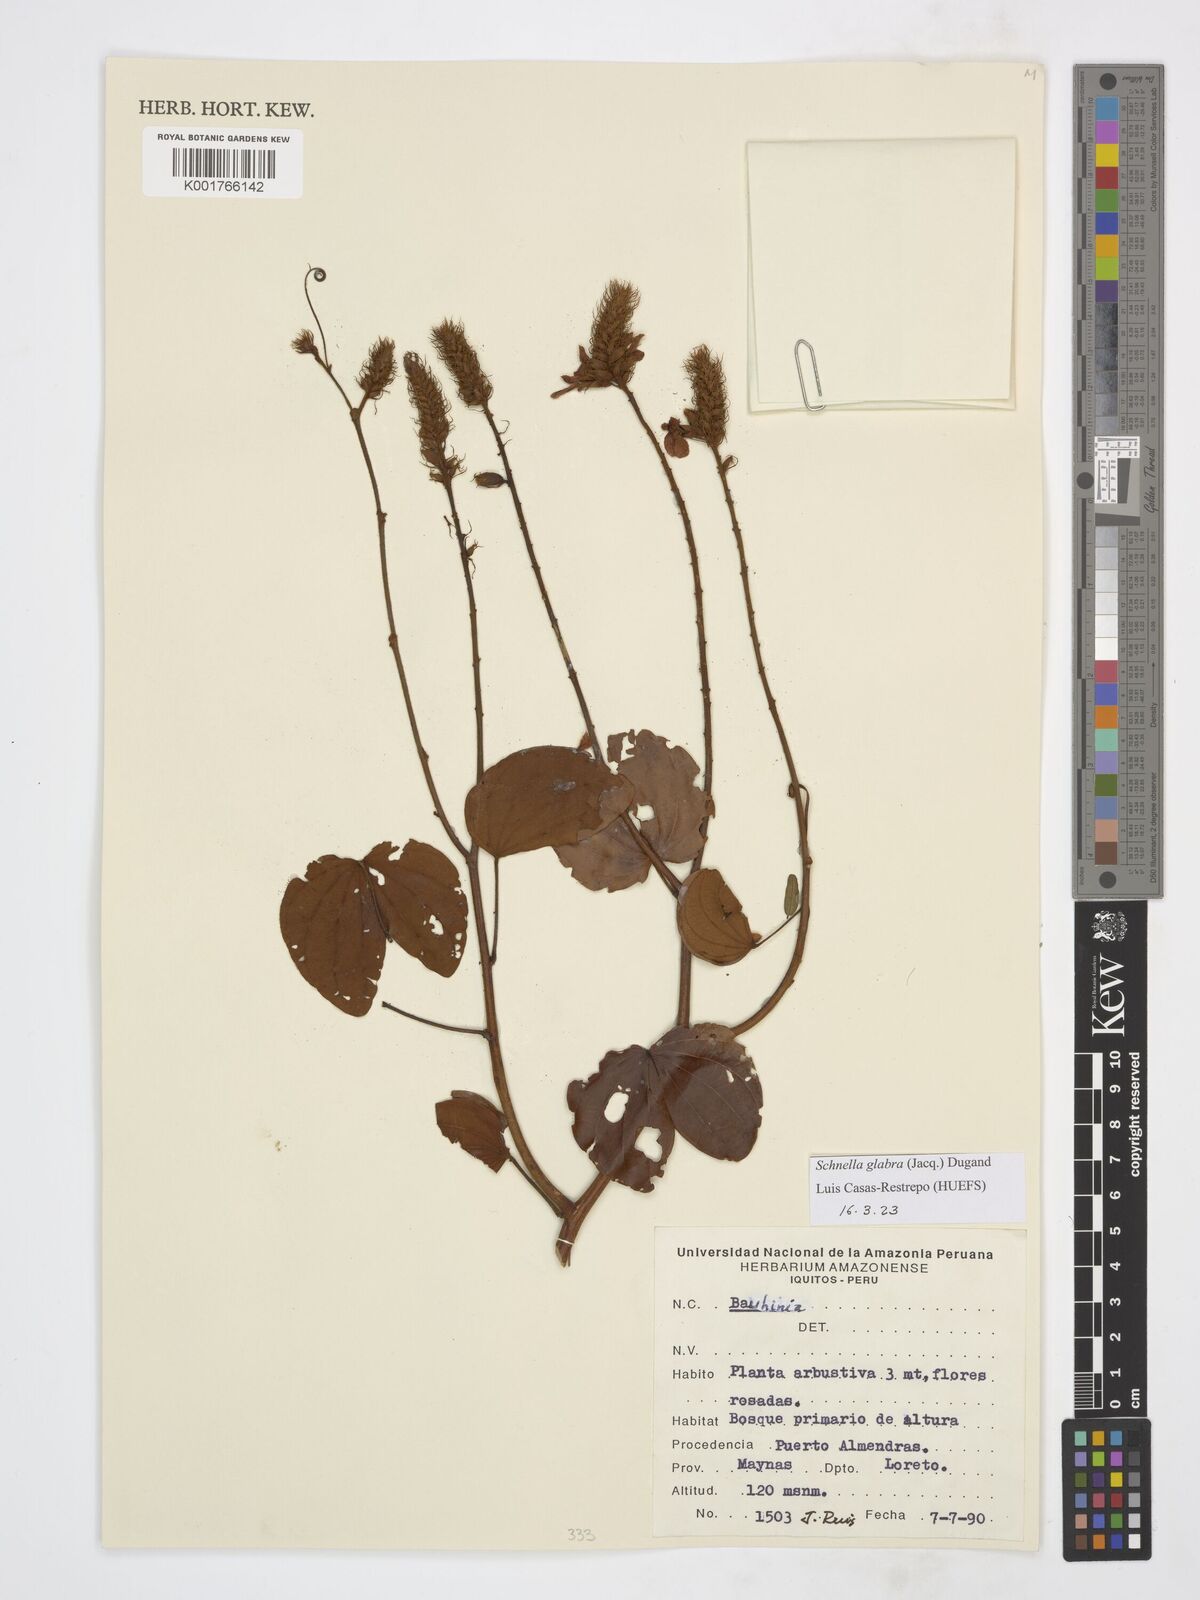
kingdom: Plantae
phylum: Tracheophyta
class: Magnoliopsida
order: Fabales
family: Fabaceae
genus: Schnella
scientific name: Schnella glabra
